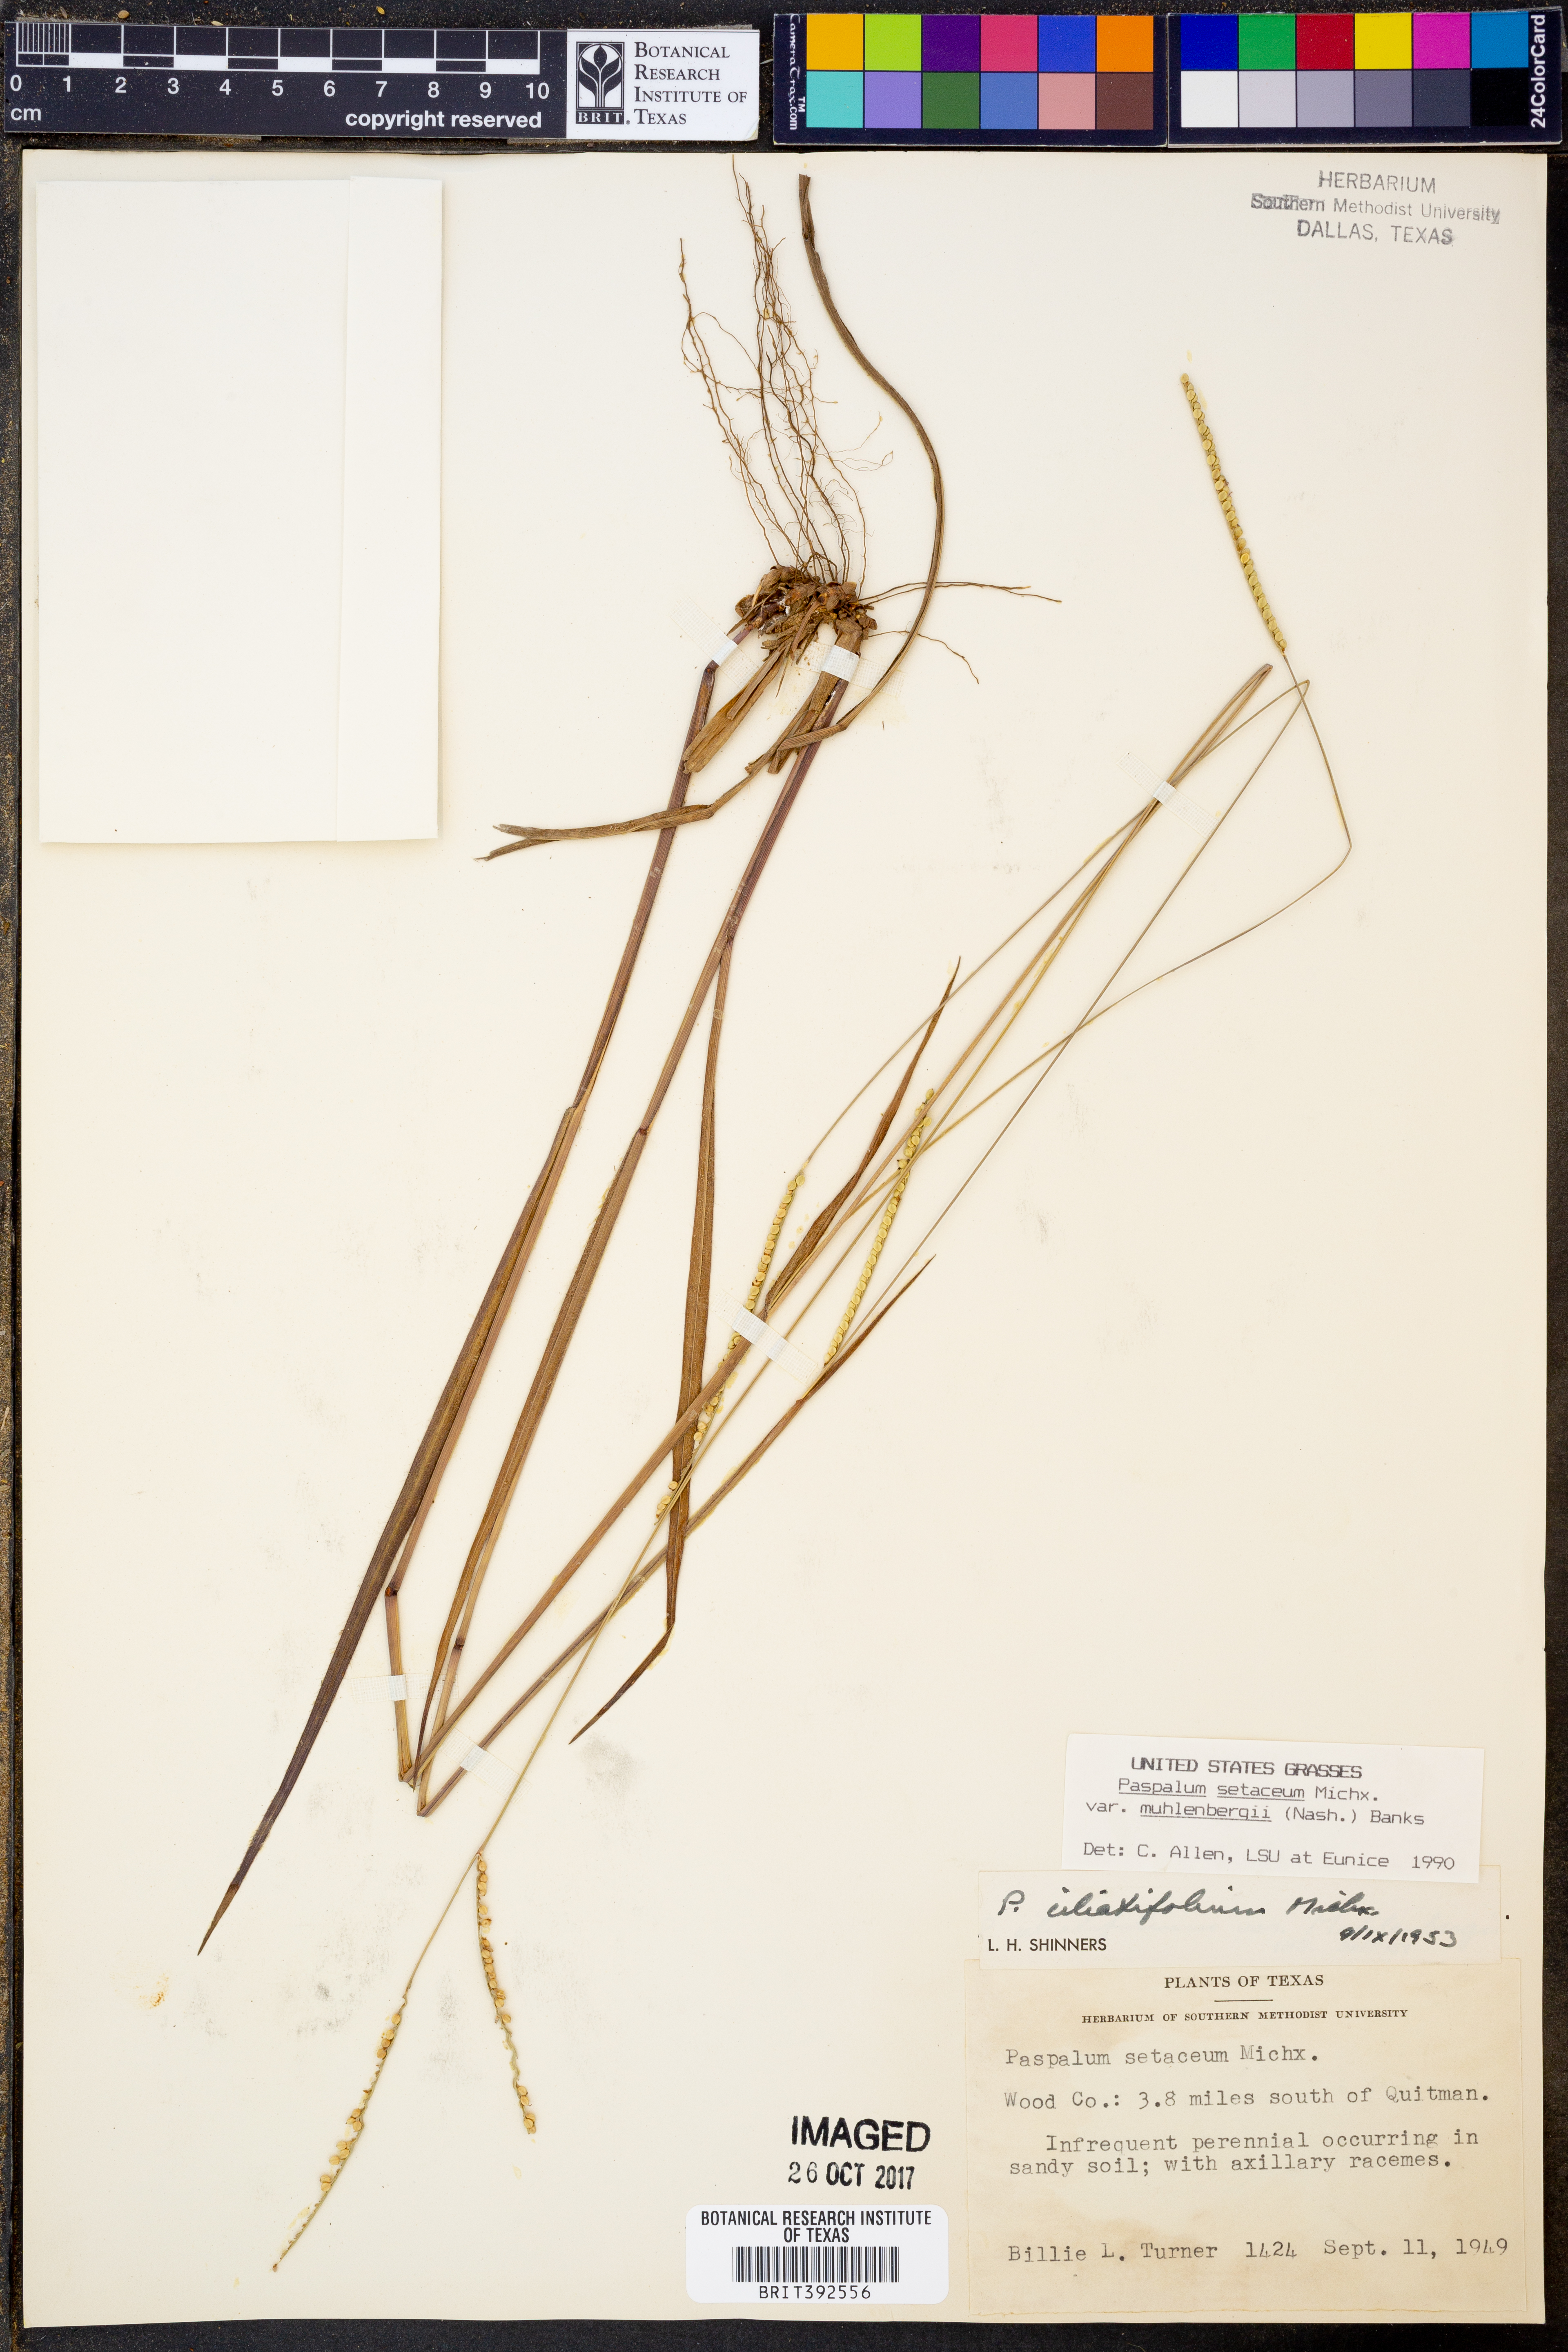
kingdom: Plantae
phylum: Tracheophyta
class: Liliopsida
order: Poales
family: Poaceae
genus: Paspalum
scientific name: Paspalum setaceum
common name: Slender paspalum
